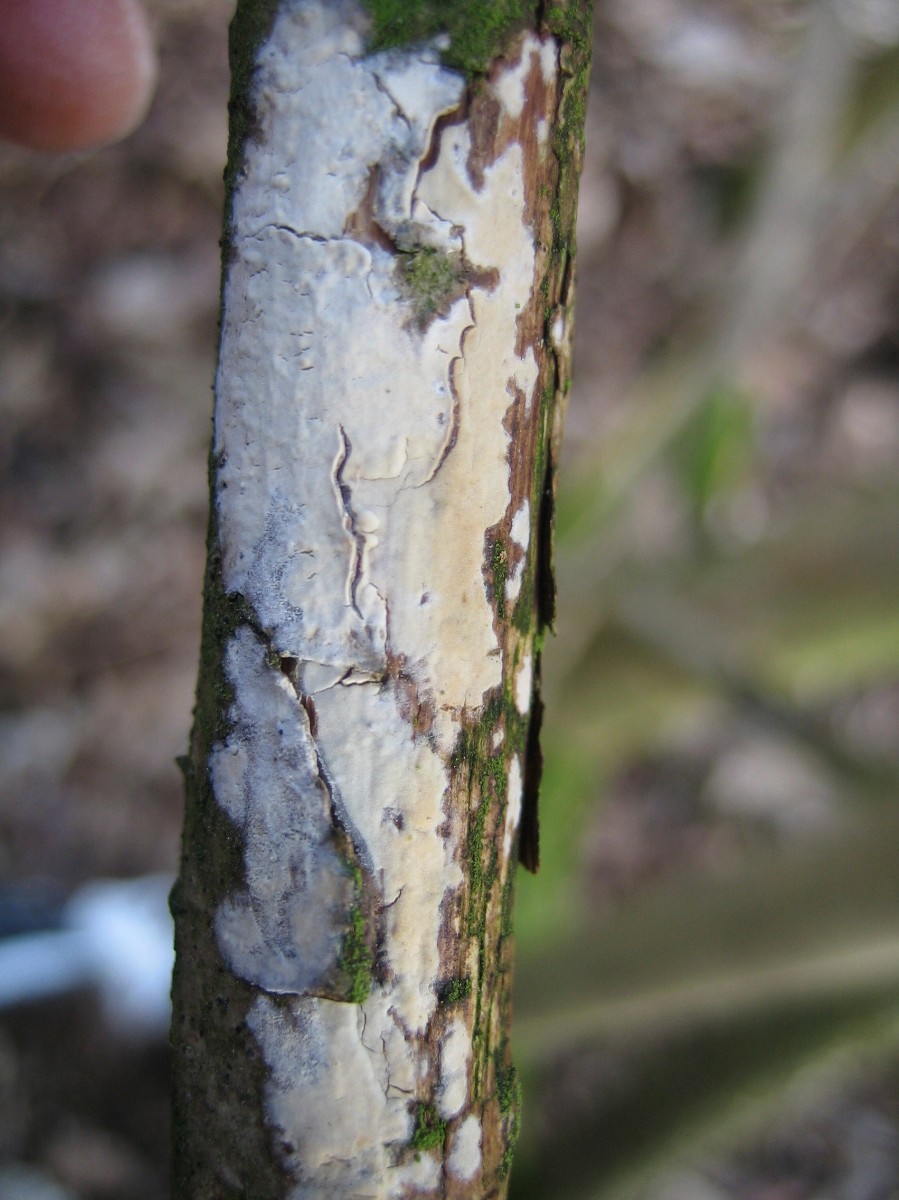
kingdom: Fungi
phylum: Basidiomycota
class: Agaricomycetes
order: Corticiales
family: Corticiaceae
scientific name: Corticiaceae
